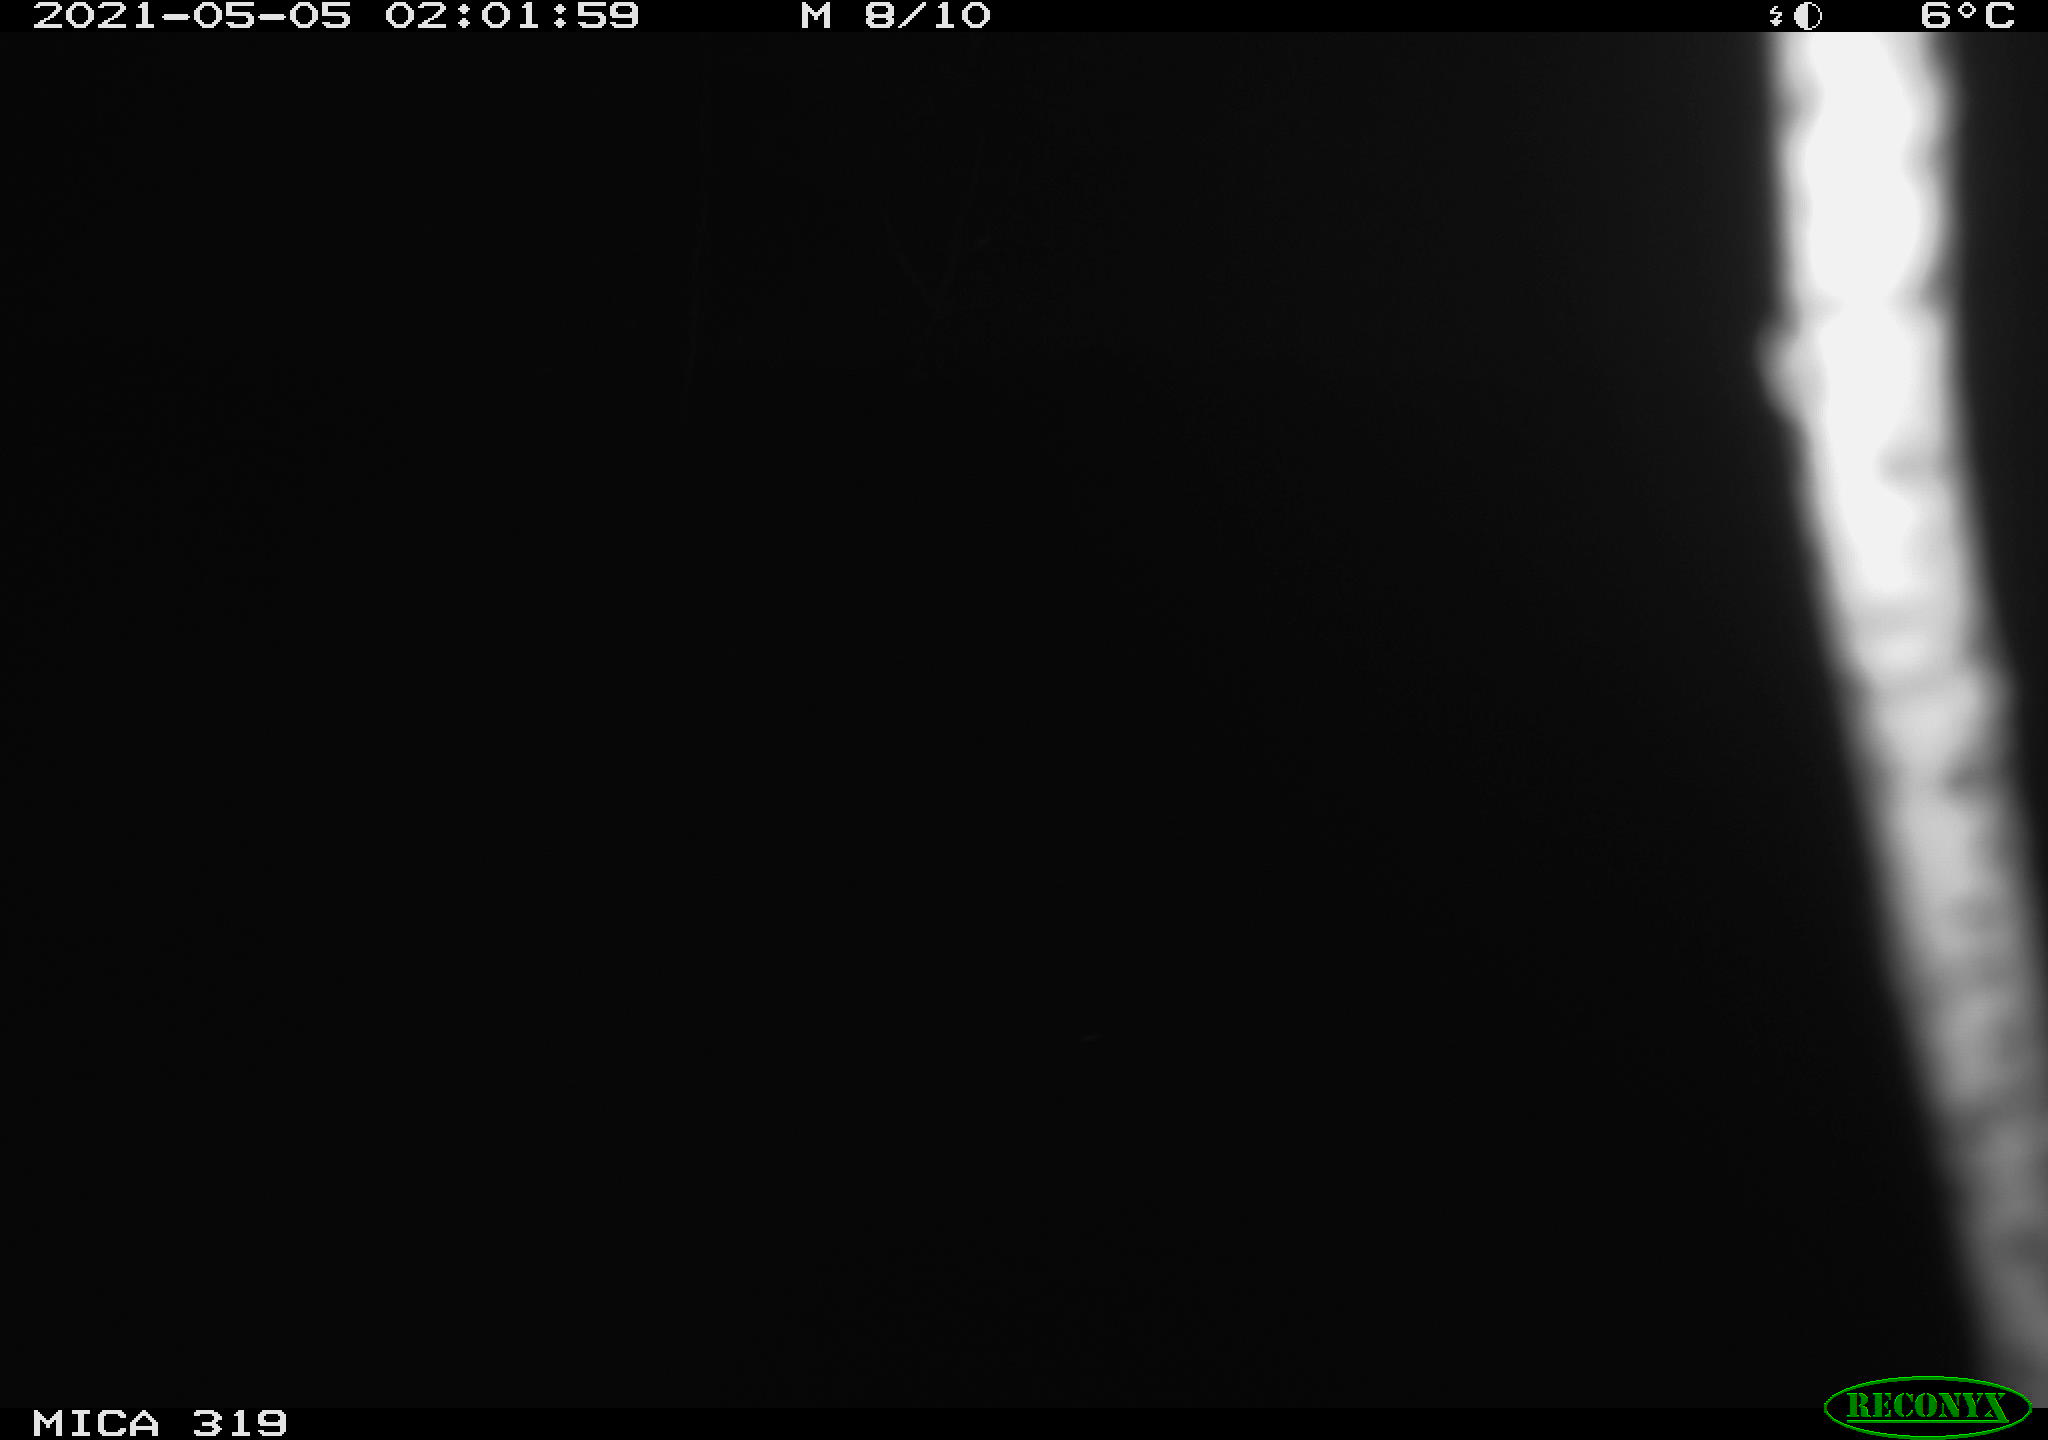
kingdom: Animalia
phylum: Chordata
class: Aves
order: Anseriformes
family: Anatidae
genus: Anas
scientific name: Anas platyrhynchos
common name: Mallard
